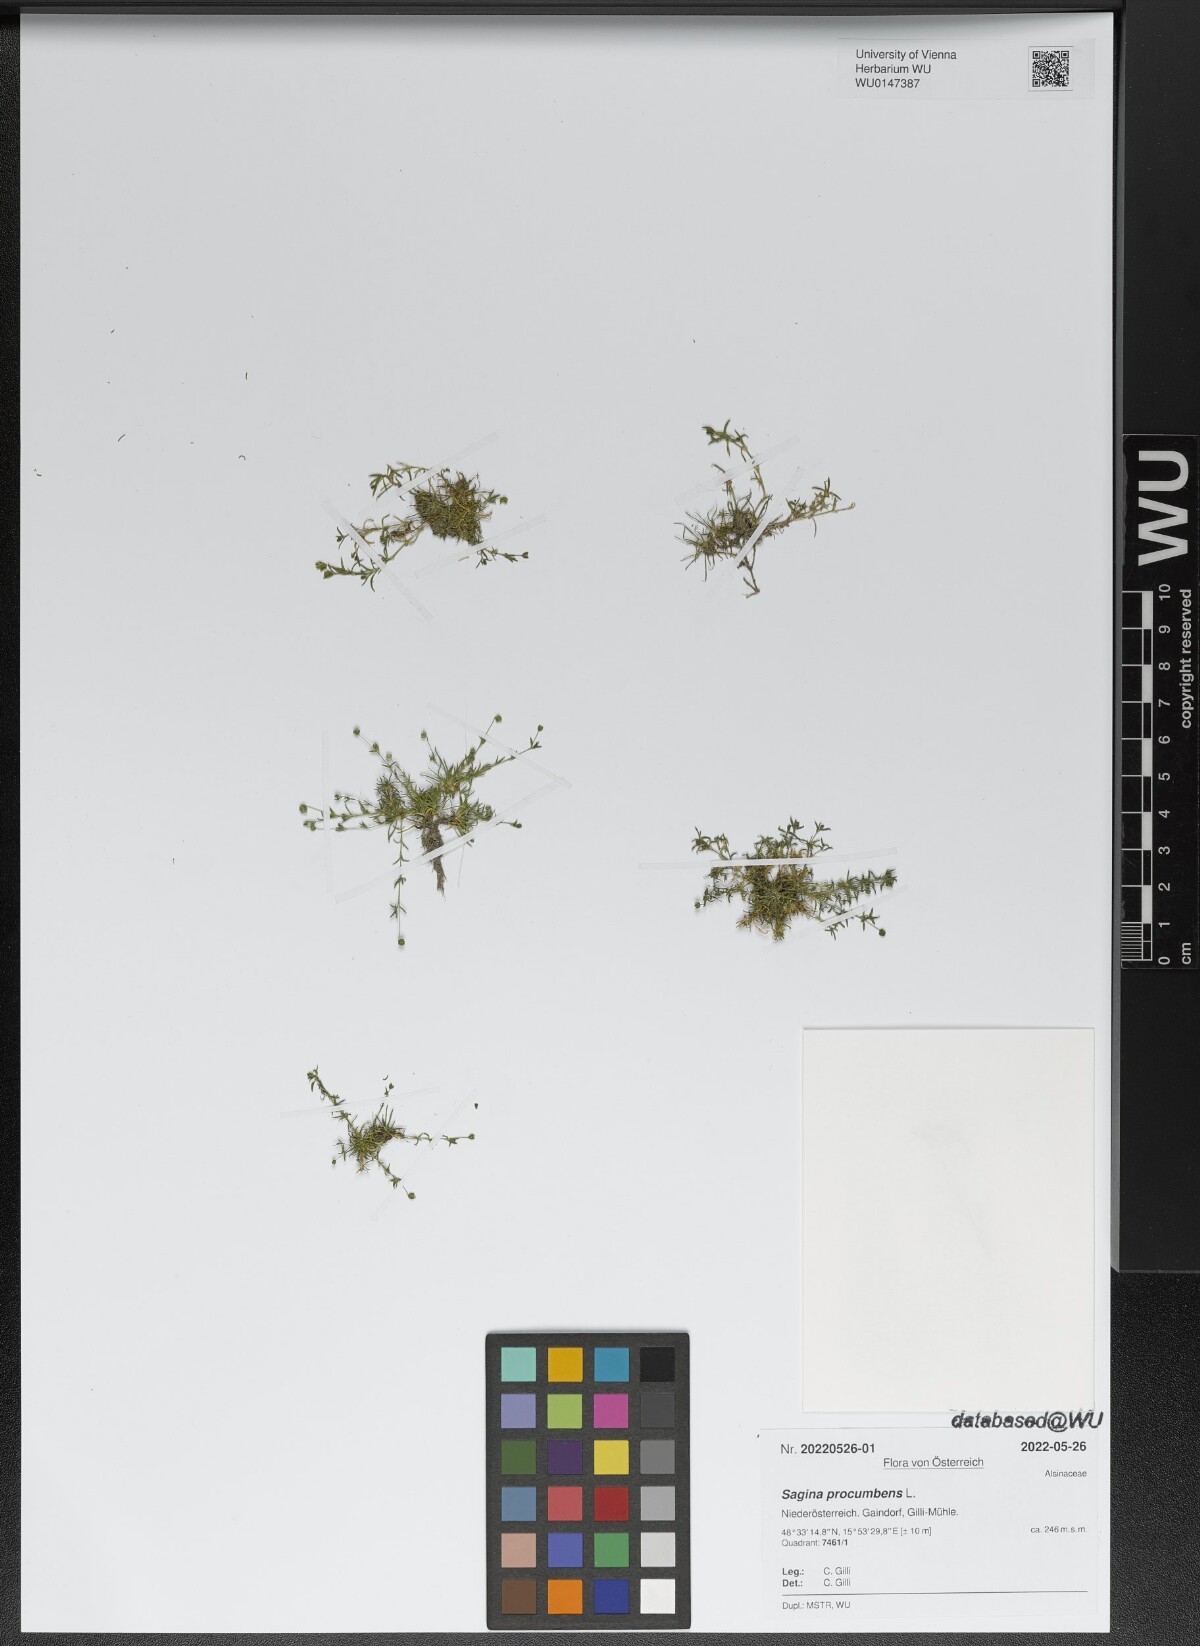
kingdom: Plantae
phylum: Tracheophyta
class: Magnoliopsida
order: Caryophyllales
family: Caryophyllaceae
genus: Sagina
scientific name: Sagina procumbens
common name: Procumbent pearlwort
